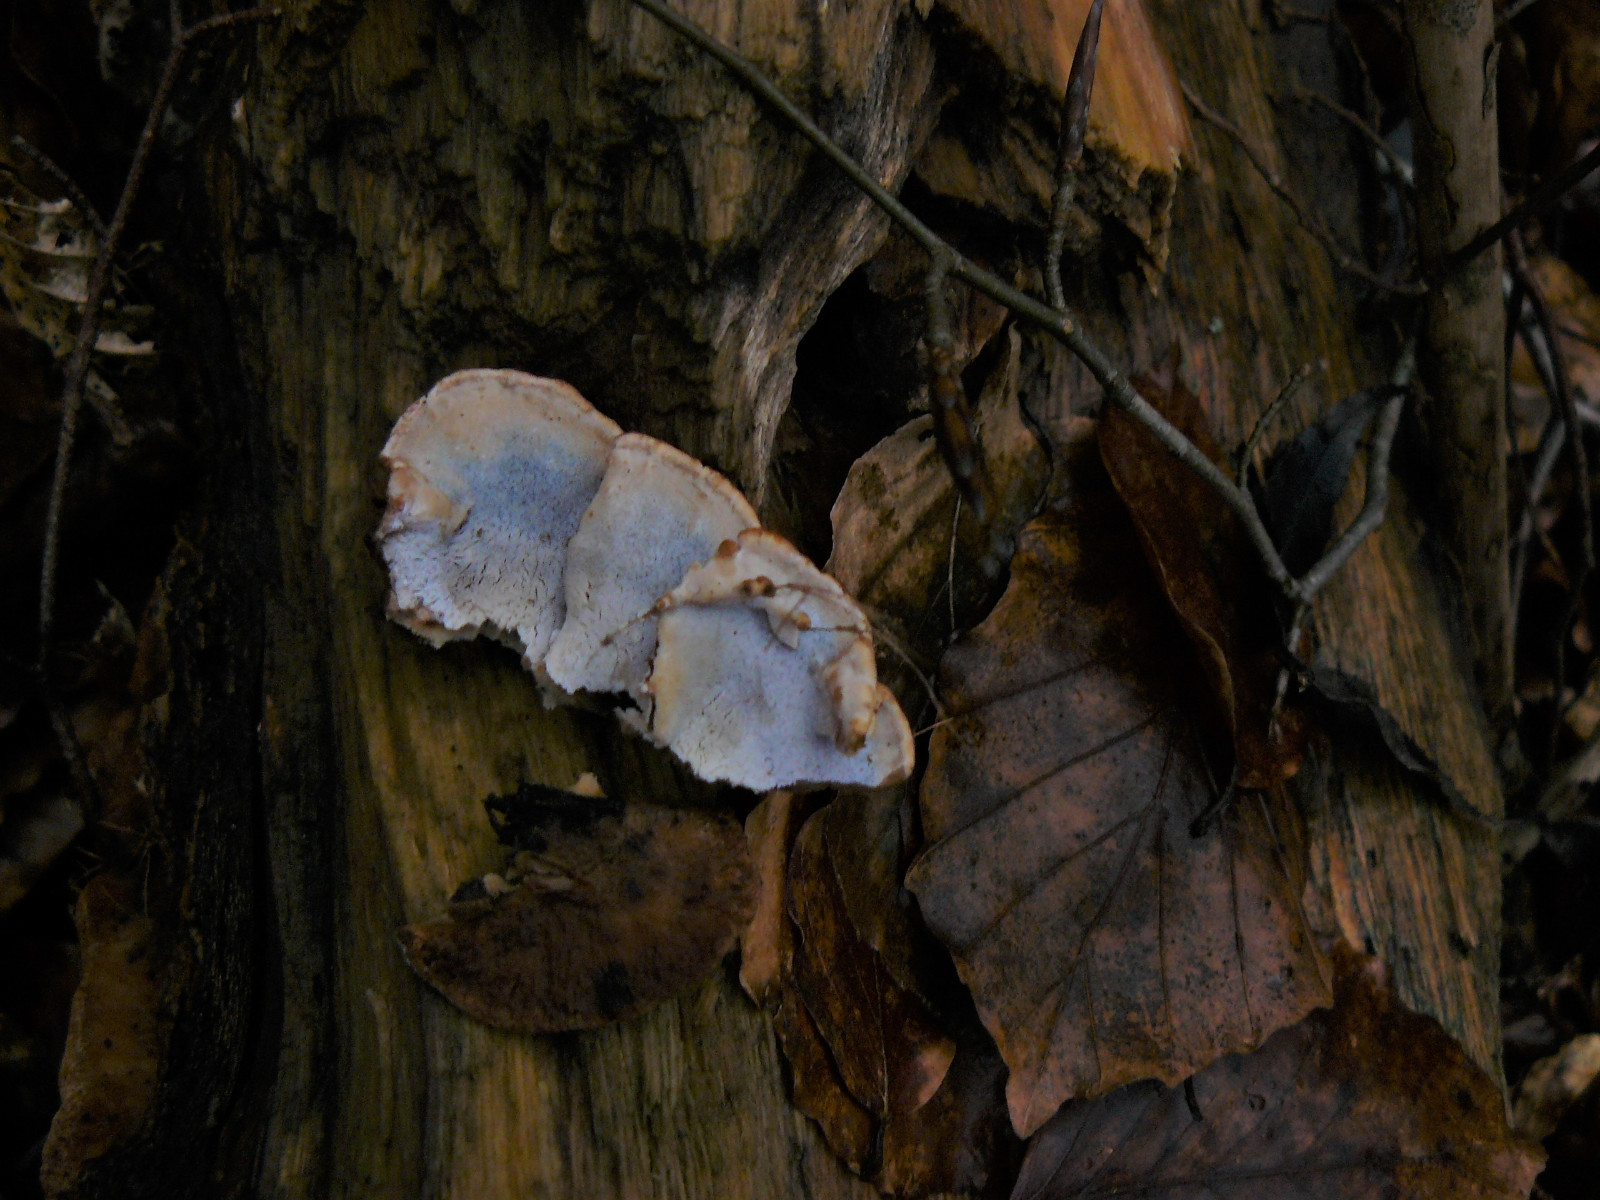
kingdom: Fungi
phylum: Basidiomycota
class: Agaricomycetes
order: Polyporales
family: Incrustoporiaceae
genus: Skeletocutis
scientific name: Skeletocutis nemoralis
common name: stor krystalporesvamp
